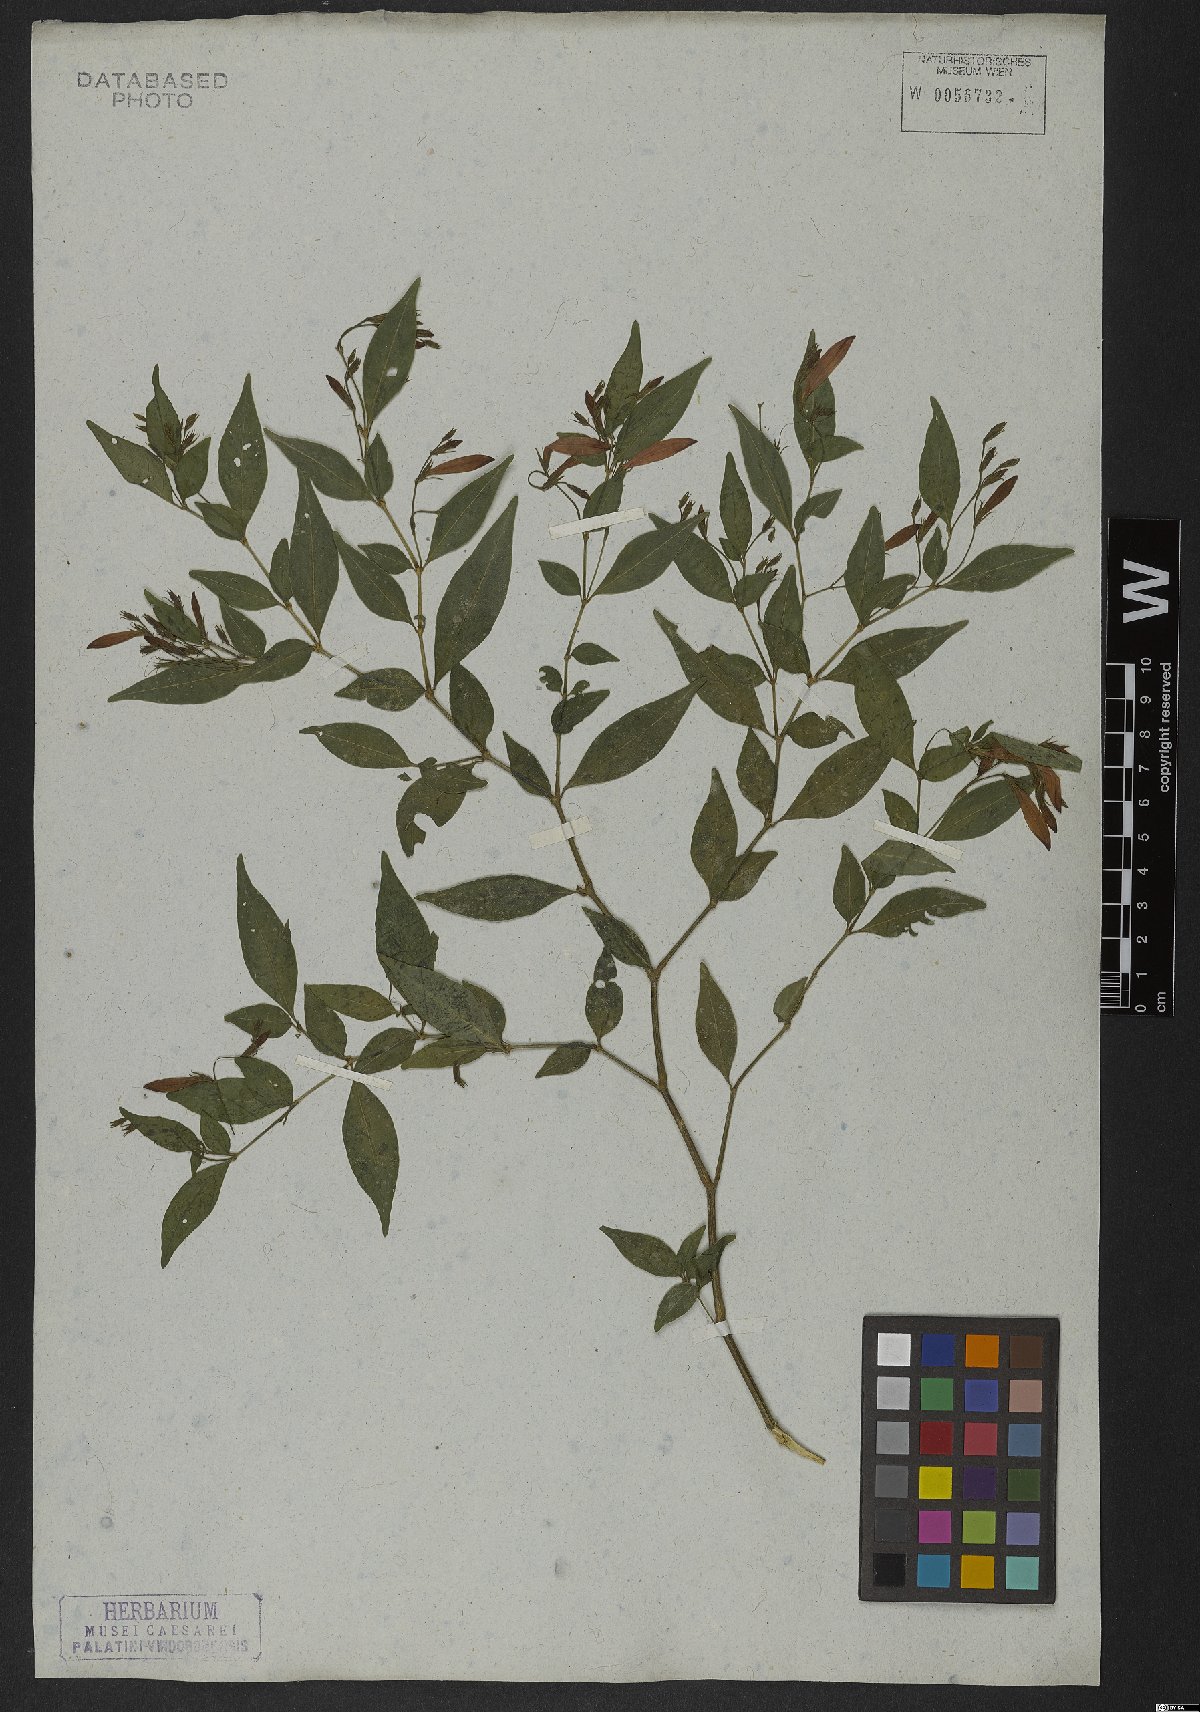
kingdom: Plantae
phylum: Tracheophyta
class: Magnoliopsida
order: Lamiales
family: Acanthaceae
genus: Justicia
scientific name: Justicia polita
